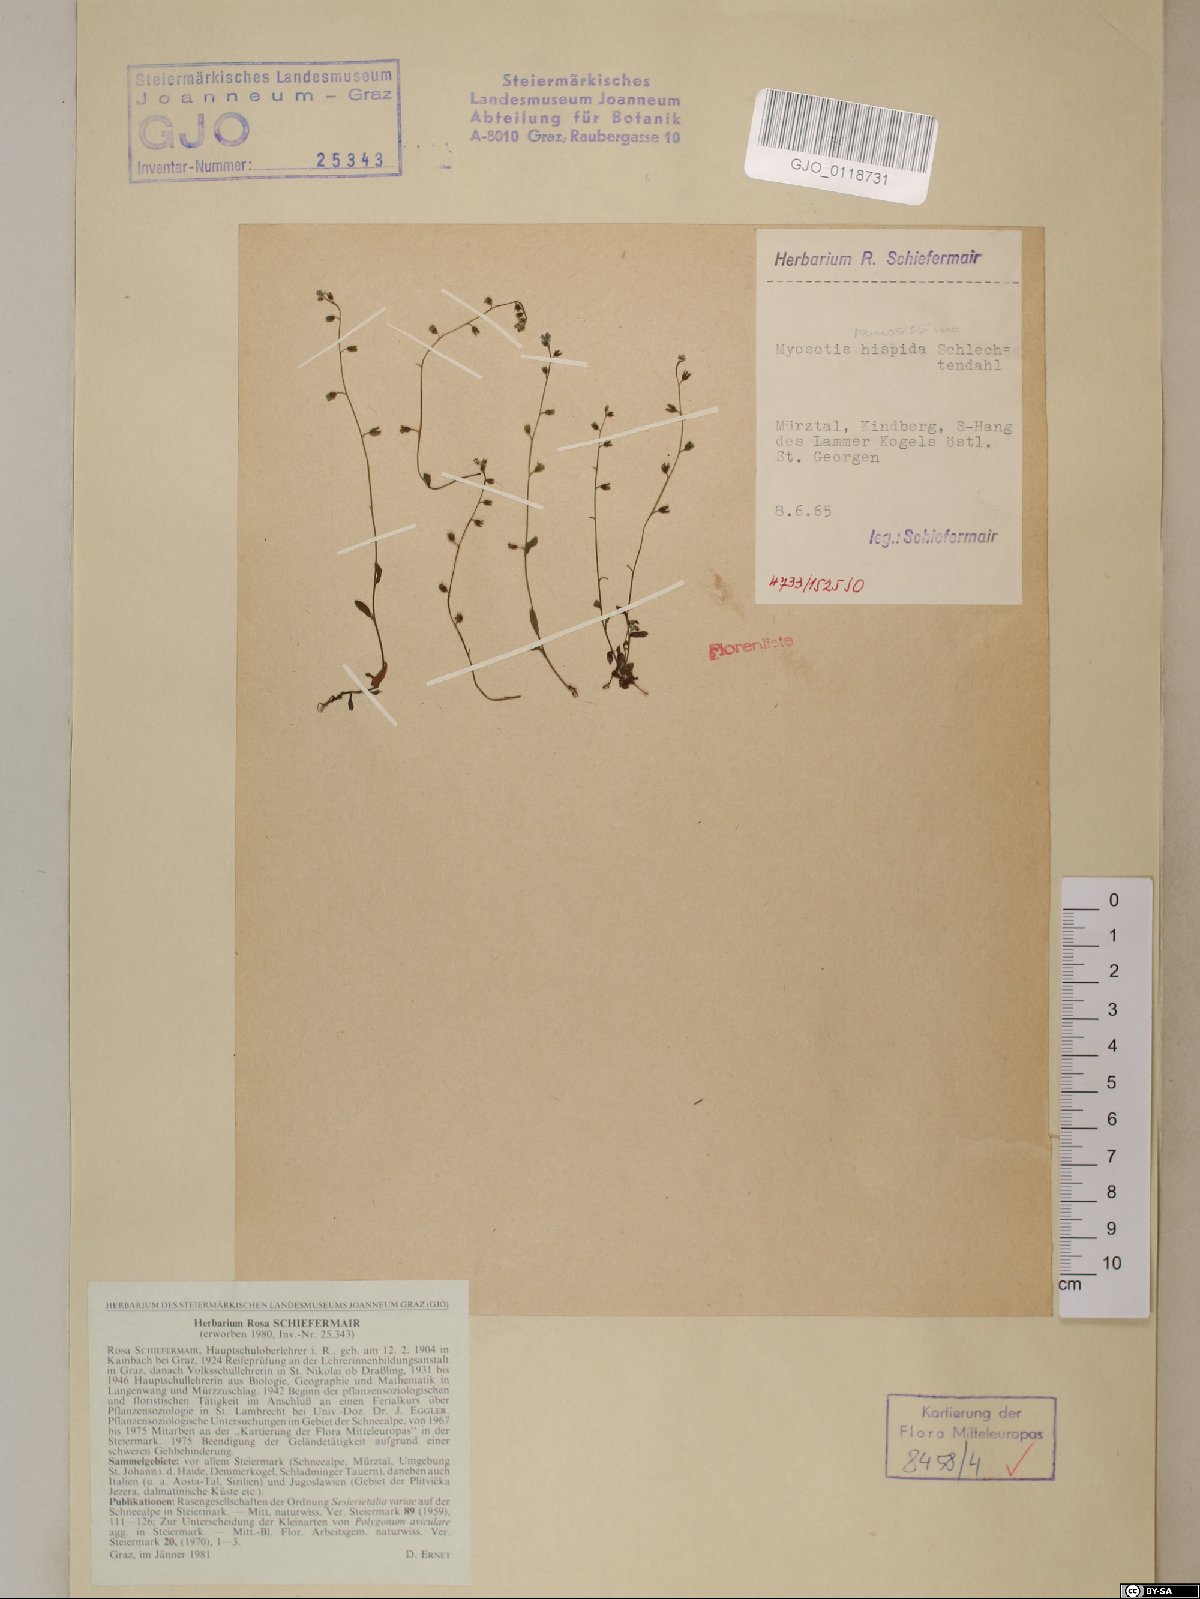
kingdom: Plantae
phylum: Tracheophyta
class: Magnoliopsida
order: Boraginales
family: Boraginaceae
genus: Myosotis
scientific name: Myosotis ramosissima
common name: Early forget-me-not
